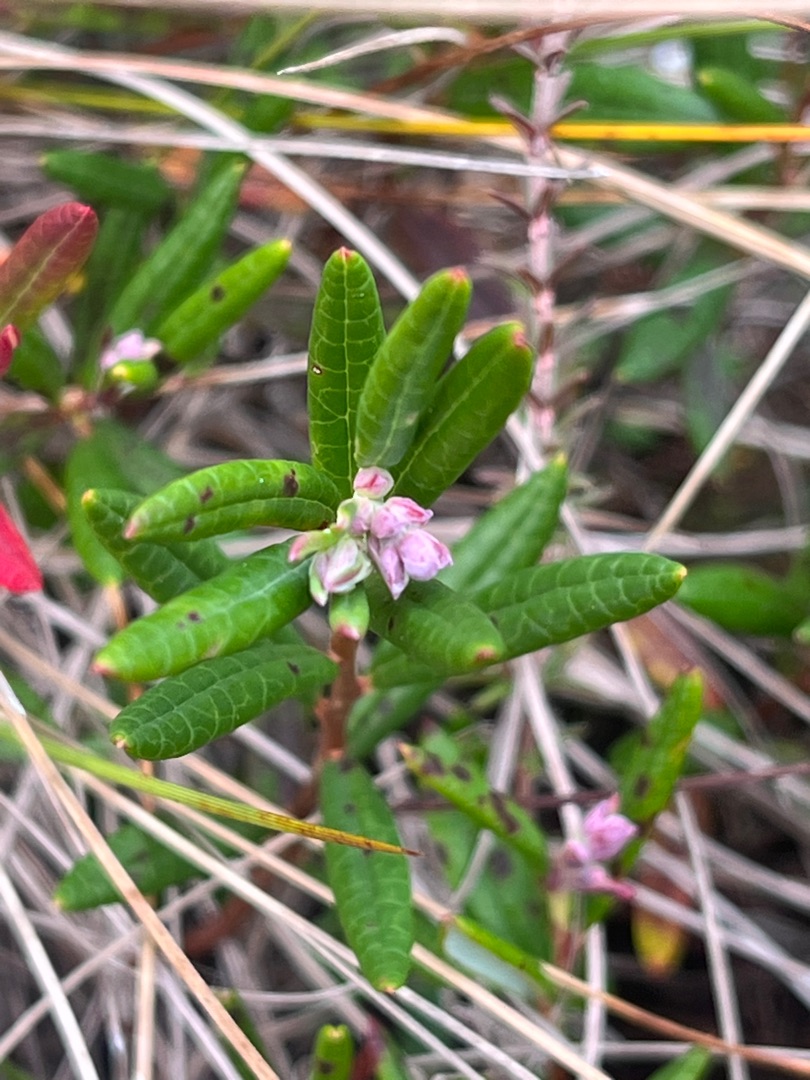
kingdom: Plantae
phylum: Tracheophyta
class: Magnoliopsida
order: Ericales
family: Ericaceae
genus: Andromeda
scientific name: Andromeda polifolia
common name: Rosmarinlyng
